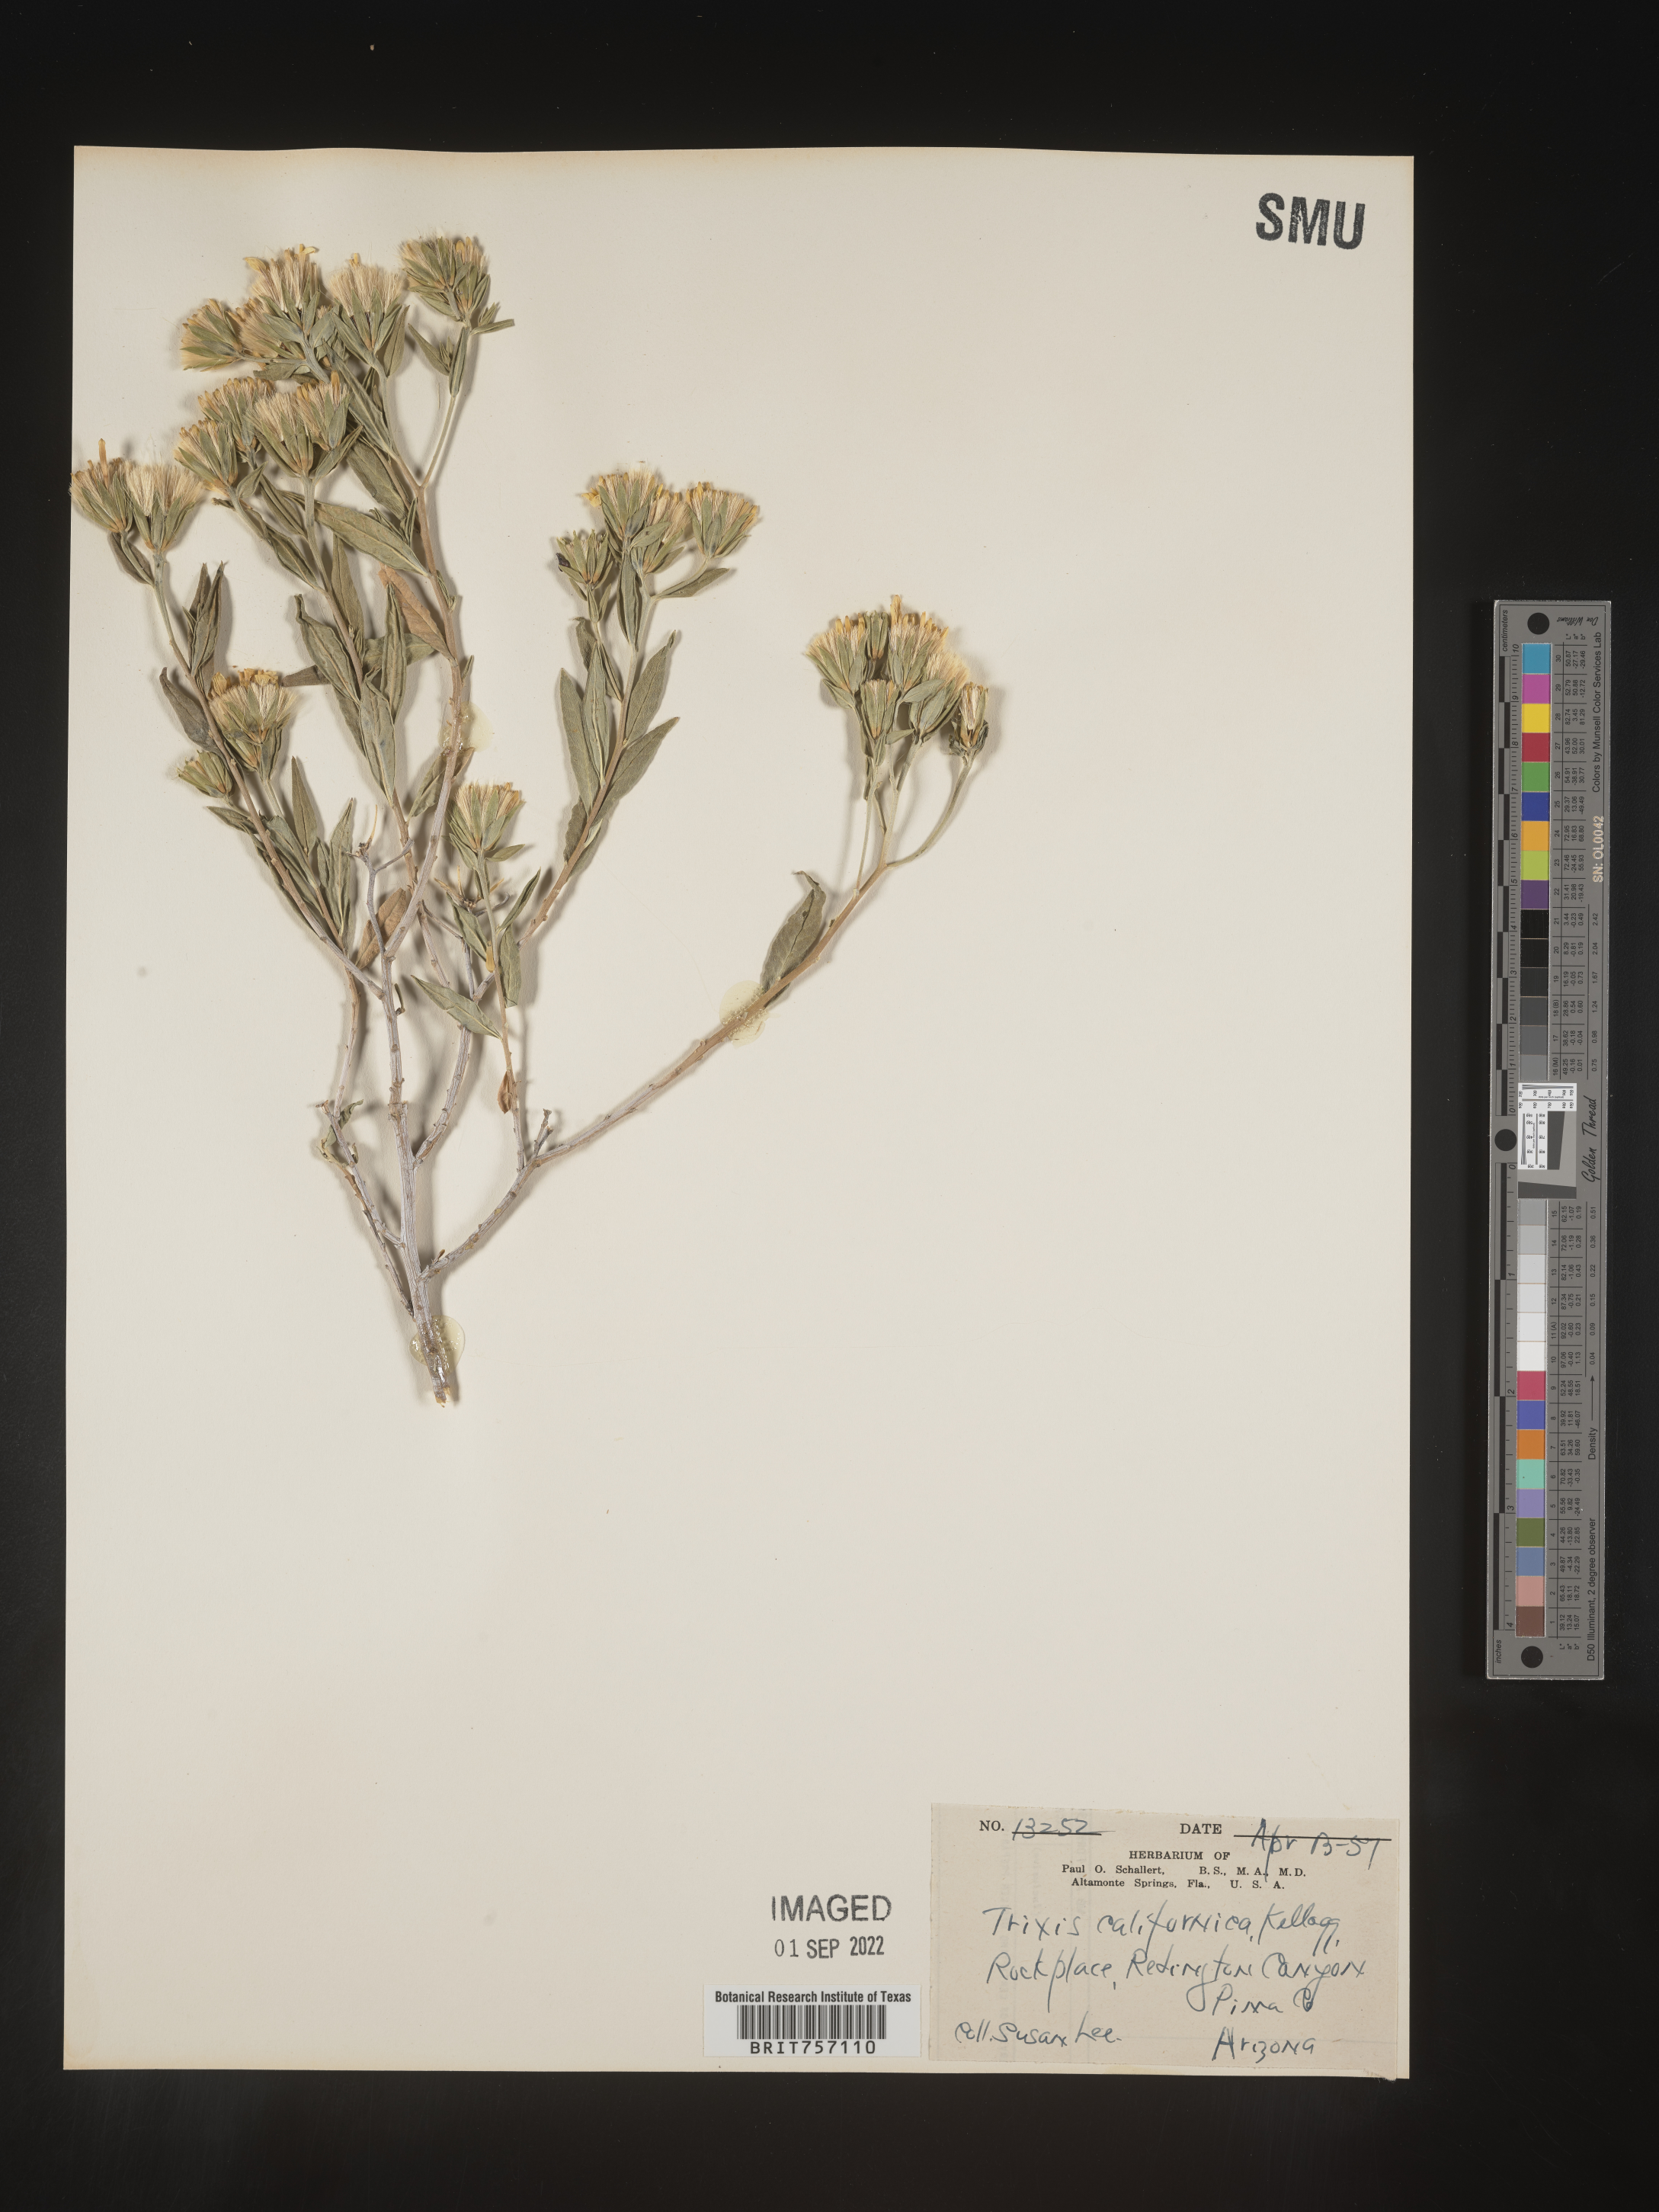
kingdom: Plantae
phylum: Tracheophyta
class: Magnoliopsida
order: Asterales
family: Asteraceae
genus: Trixis
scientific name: Trixis
